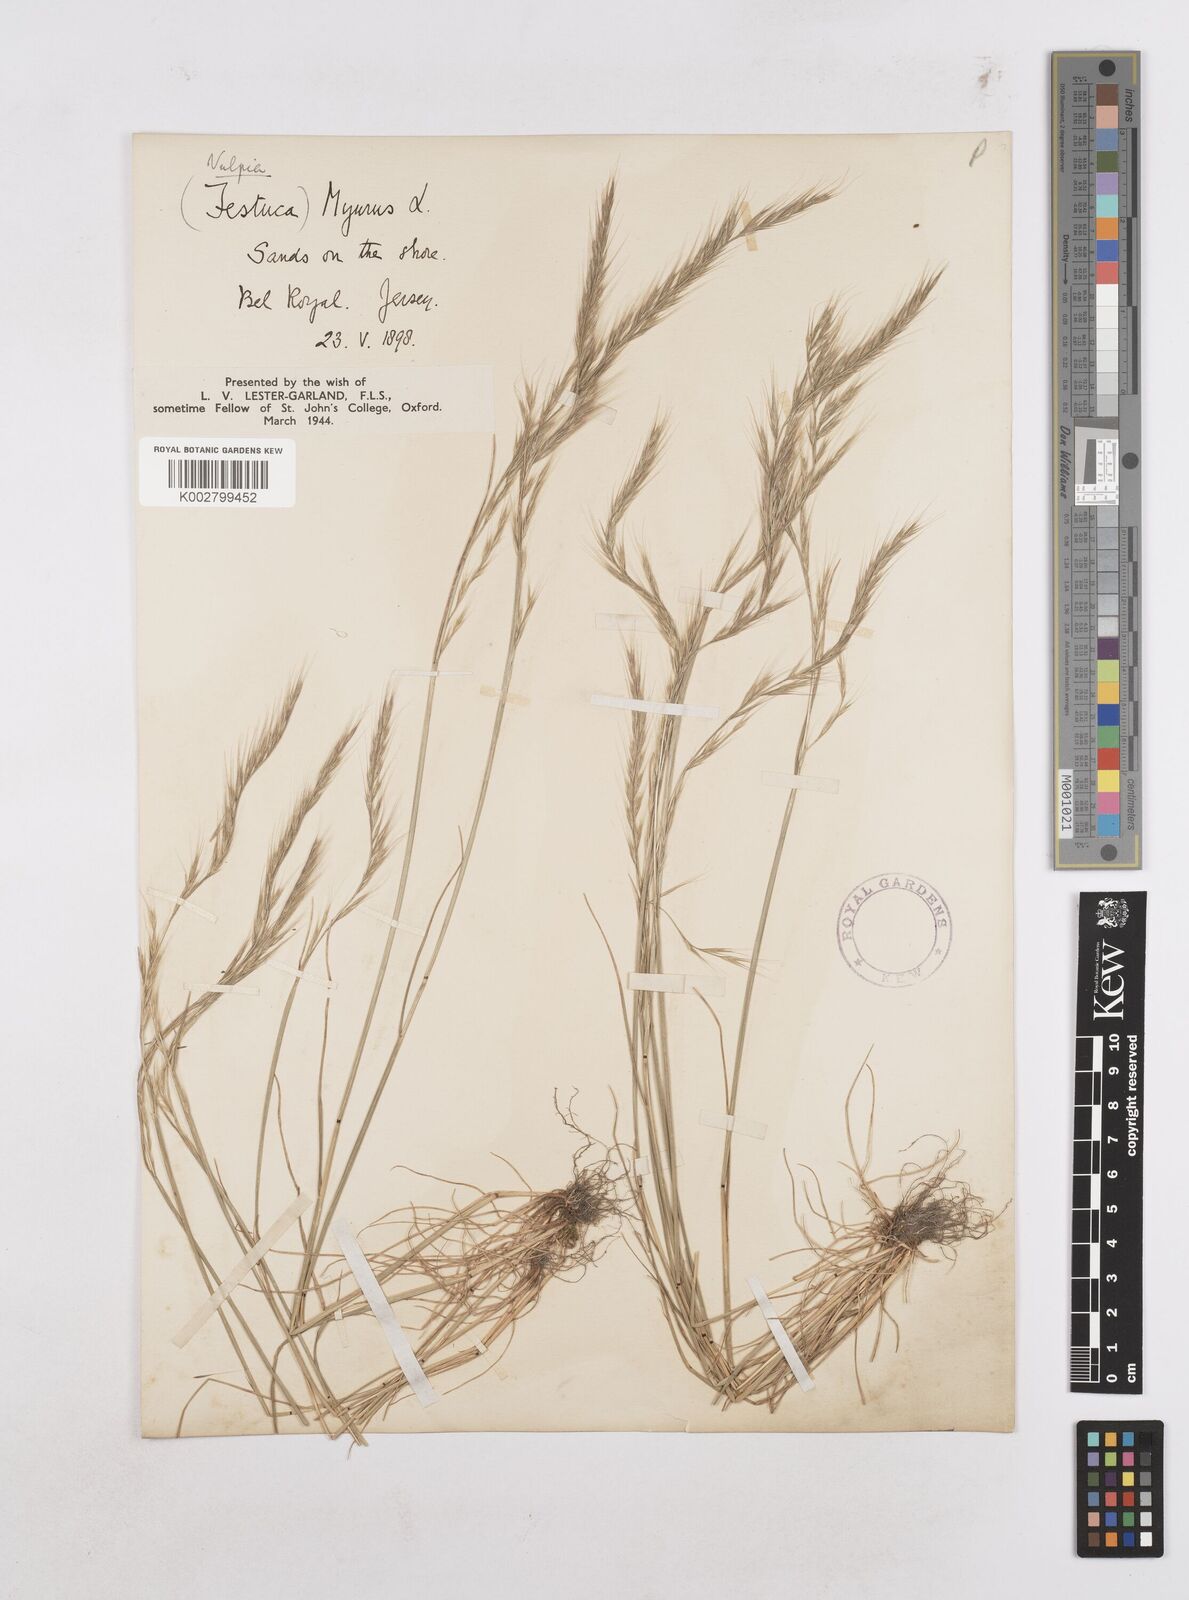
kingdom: Plantae
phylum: Tracheophyta
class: Liliopsida
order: Poales
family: Poaceae
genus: Festuca
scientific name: Festuca myuros
